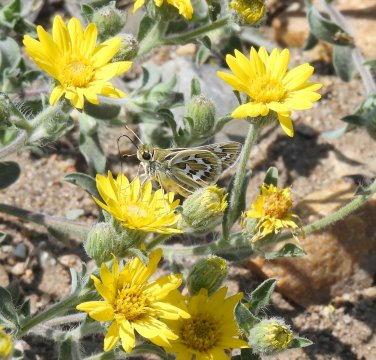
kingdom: Animalia
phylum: Arthropoda
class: Insecta
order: Lepidoptera
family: Hesperiidae
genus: Hesperia
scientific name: Hesperia uncas
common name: Uncas Skipper
